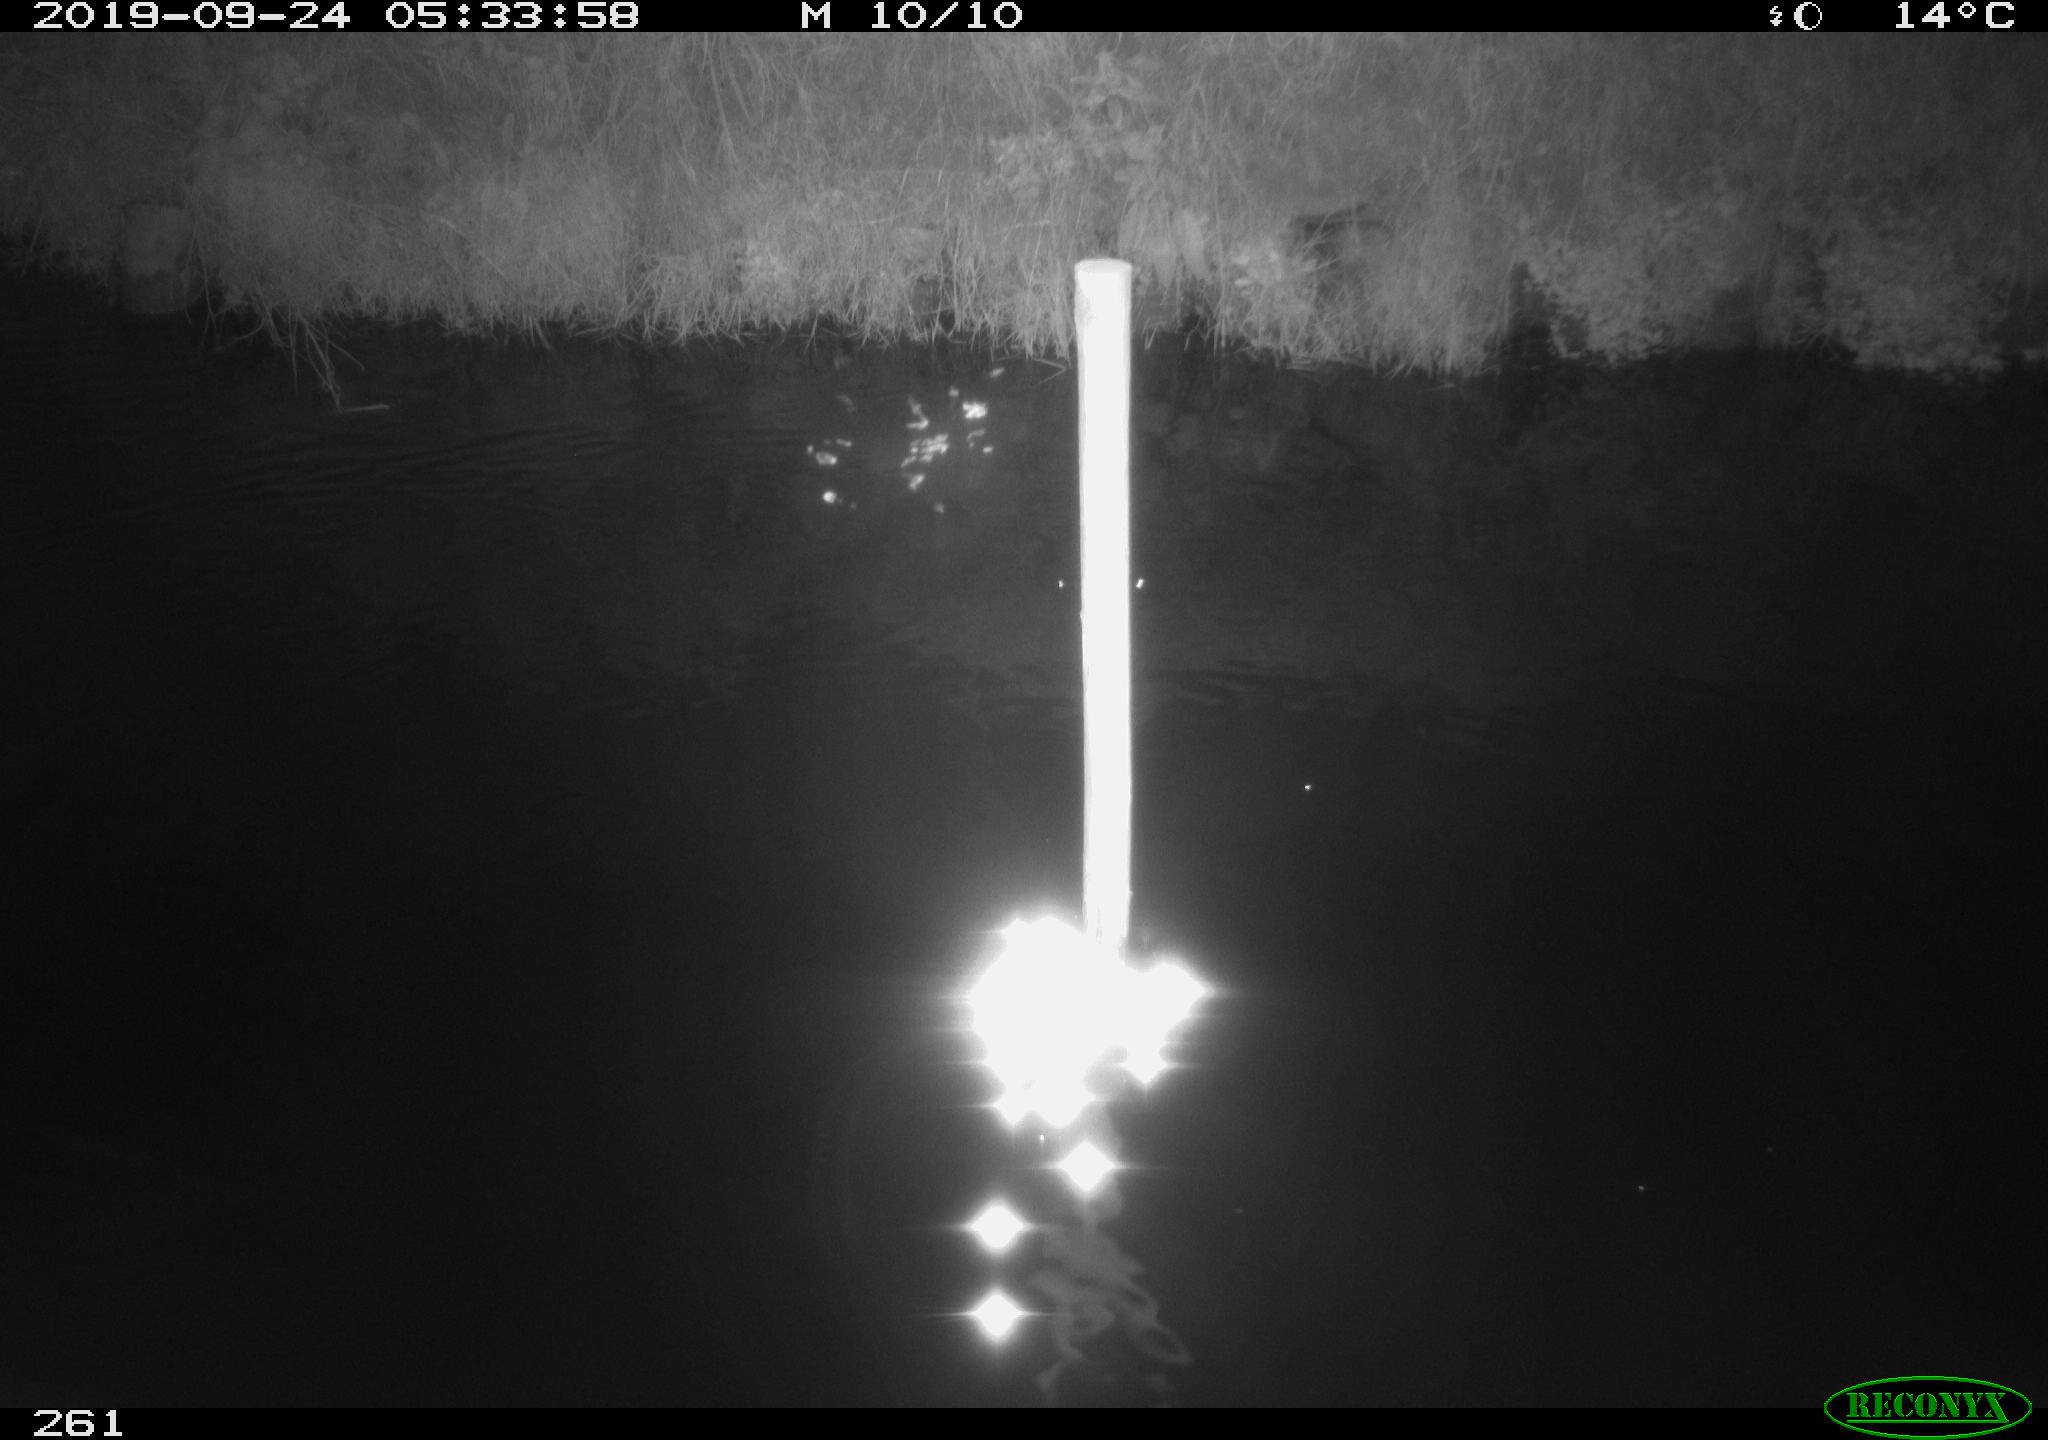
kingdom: Animalia
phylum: Chordata
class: Aves
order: Anseriformes
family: Anatidae
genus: Anas
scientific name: Anas platyrhynchos
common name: Mallard
